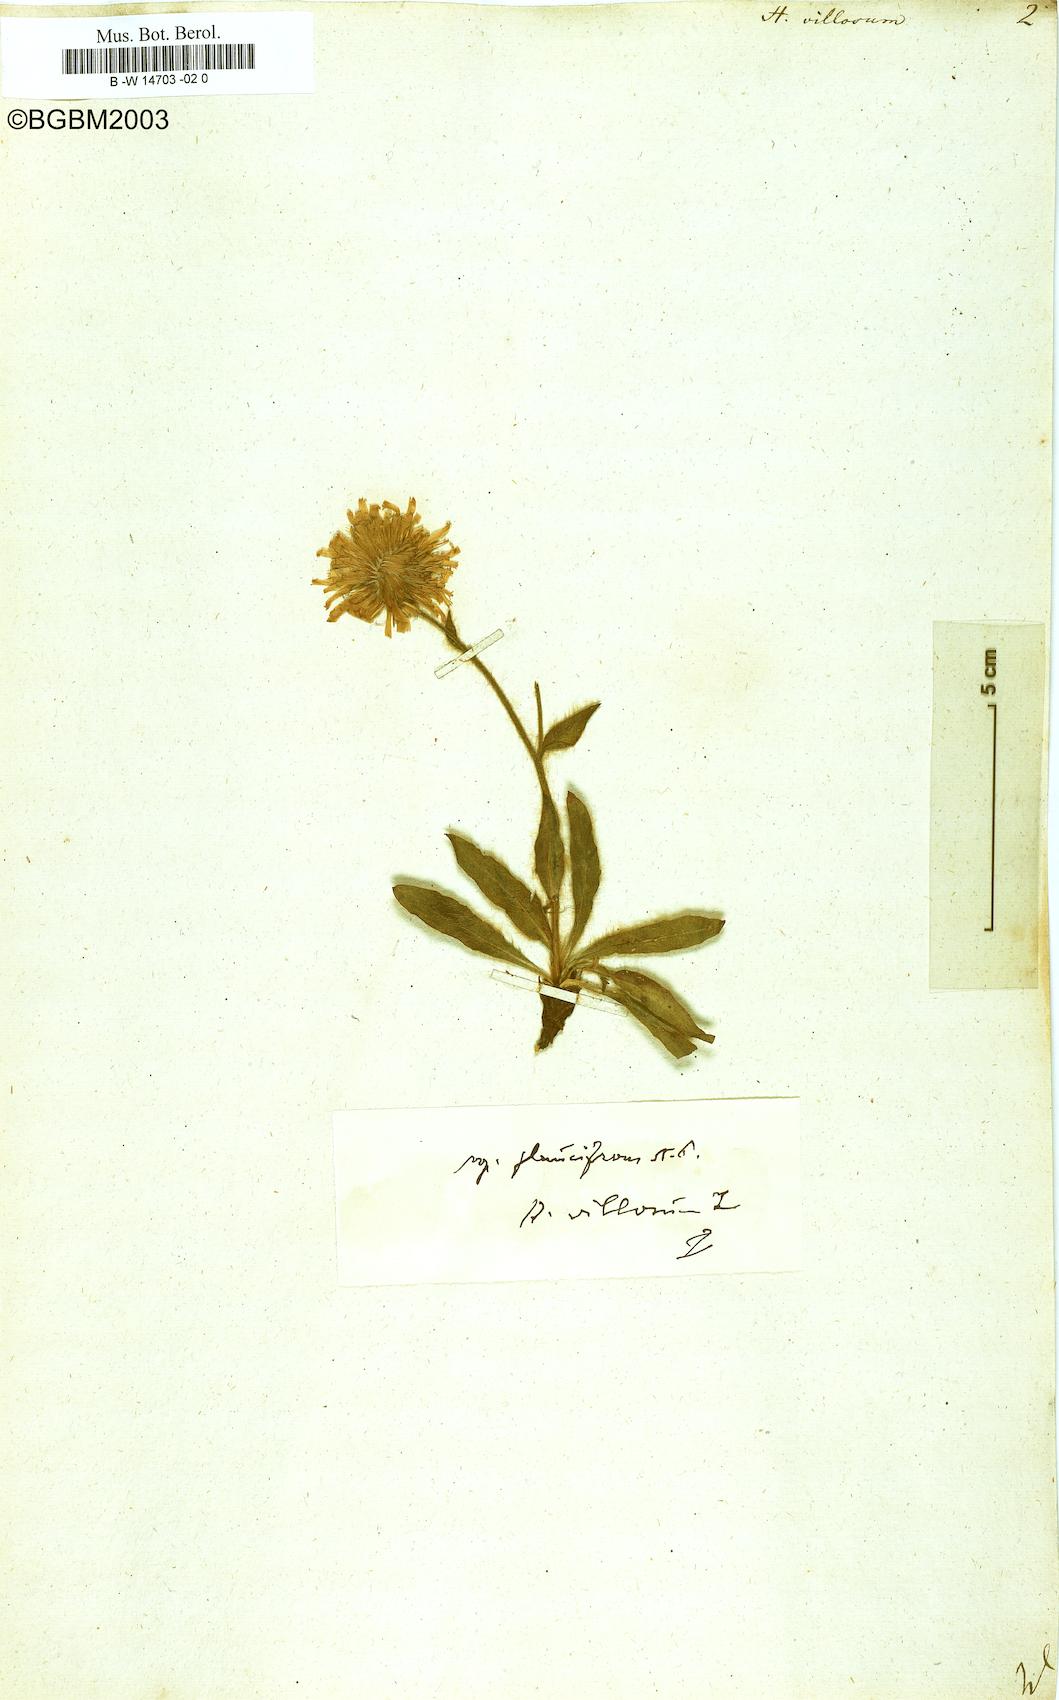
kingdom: Plantae
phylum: Tracheophyta
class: Magnoliopsida
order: Asterales
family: Asteraceae
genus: Hieracium
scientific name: Hieracium villosum
